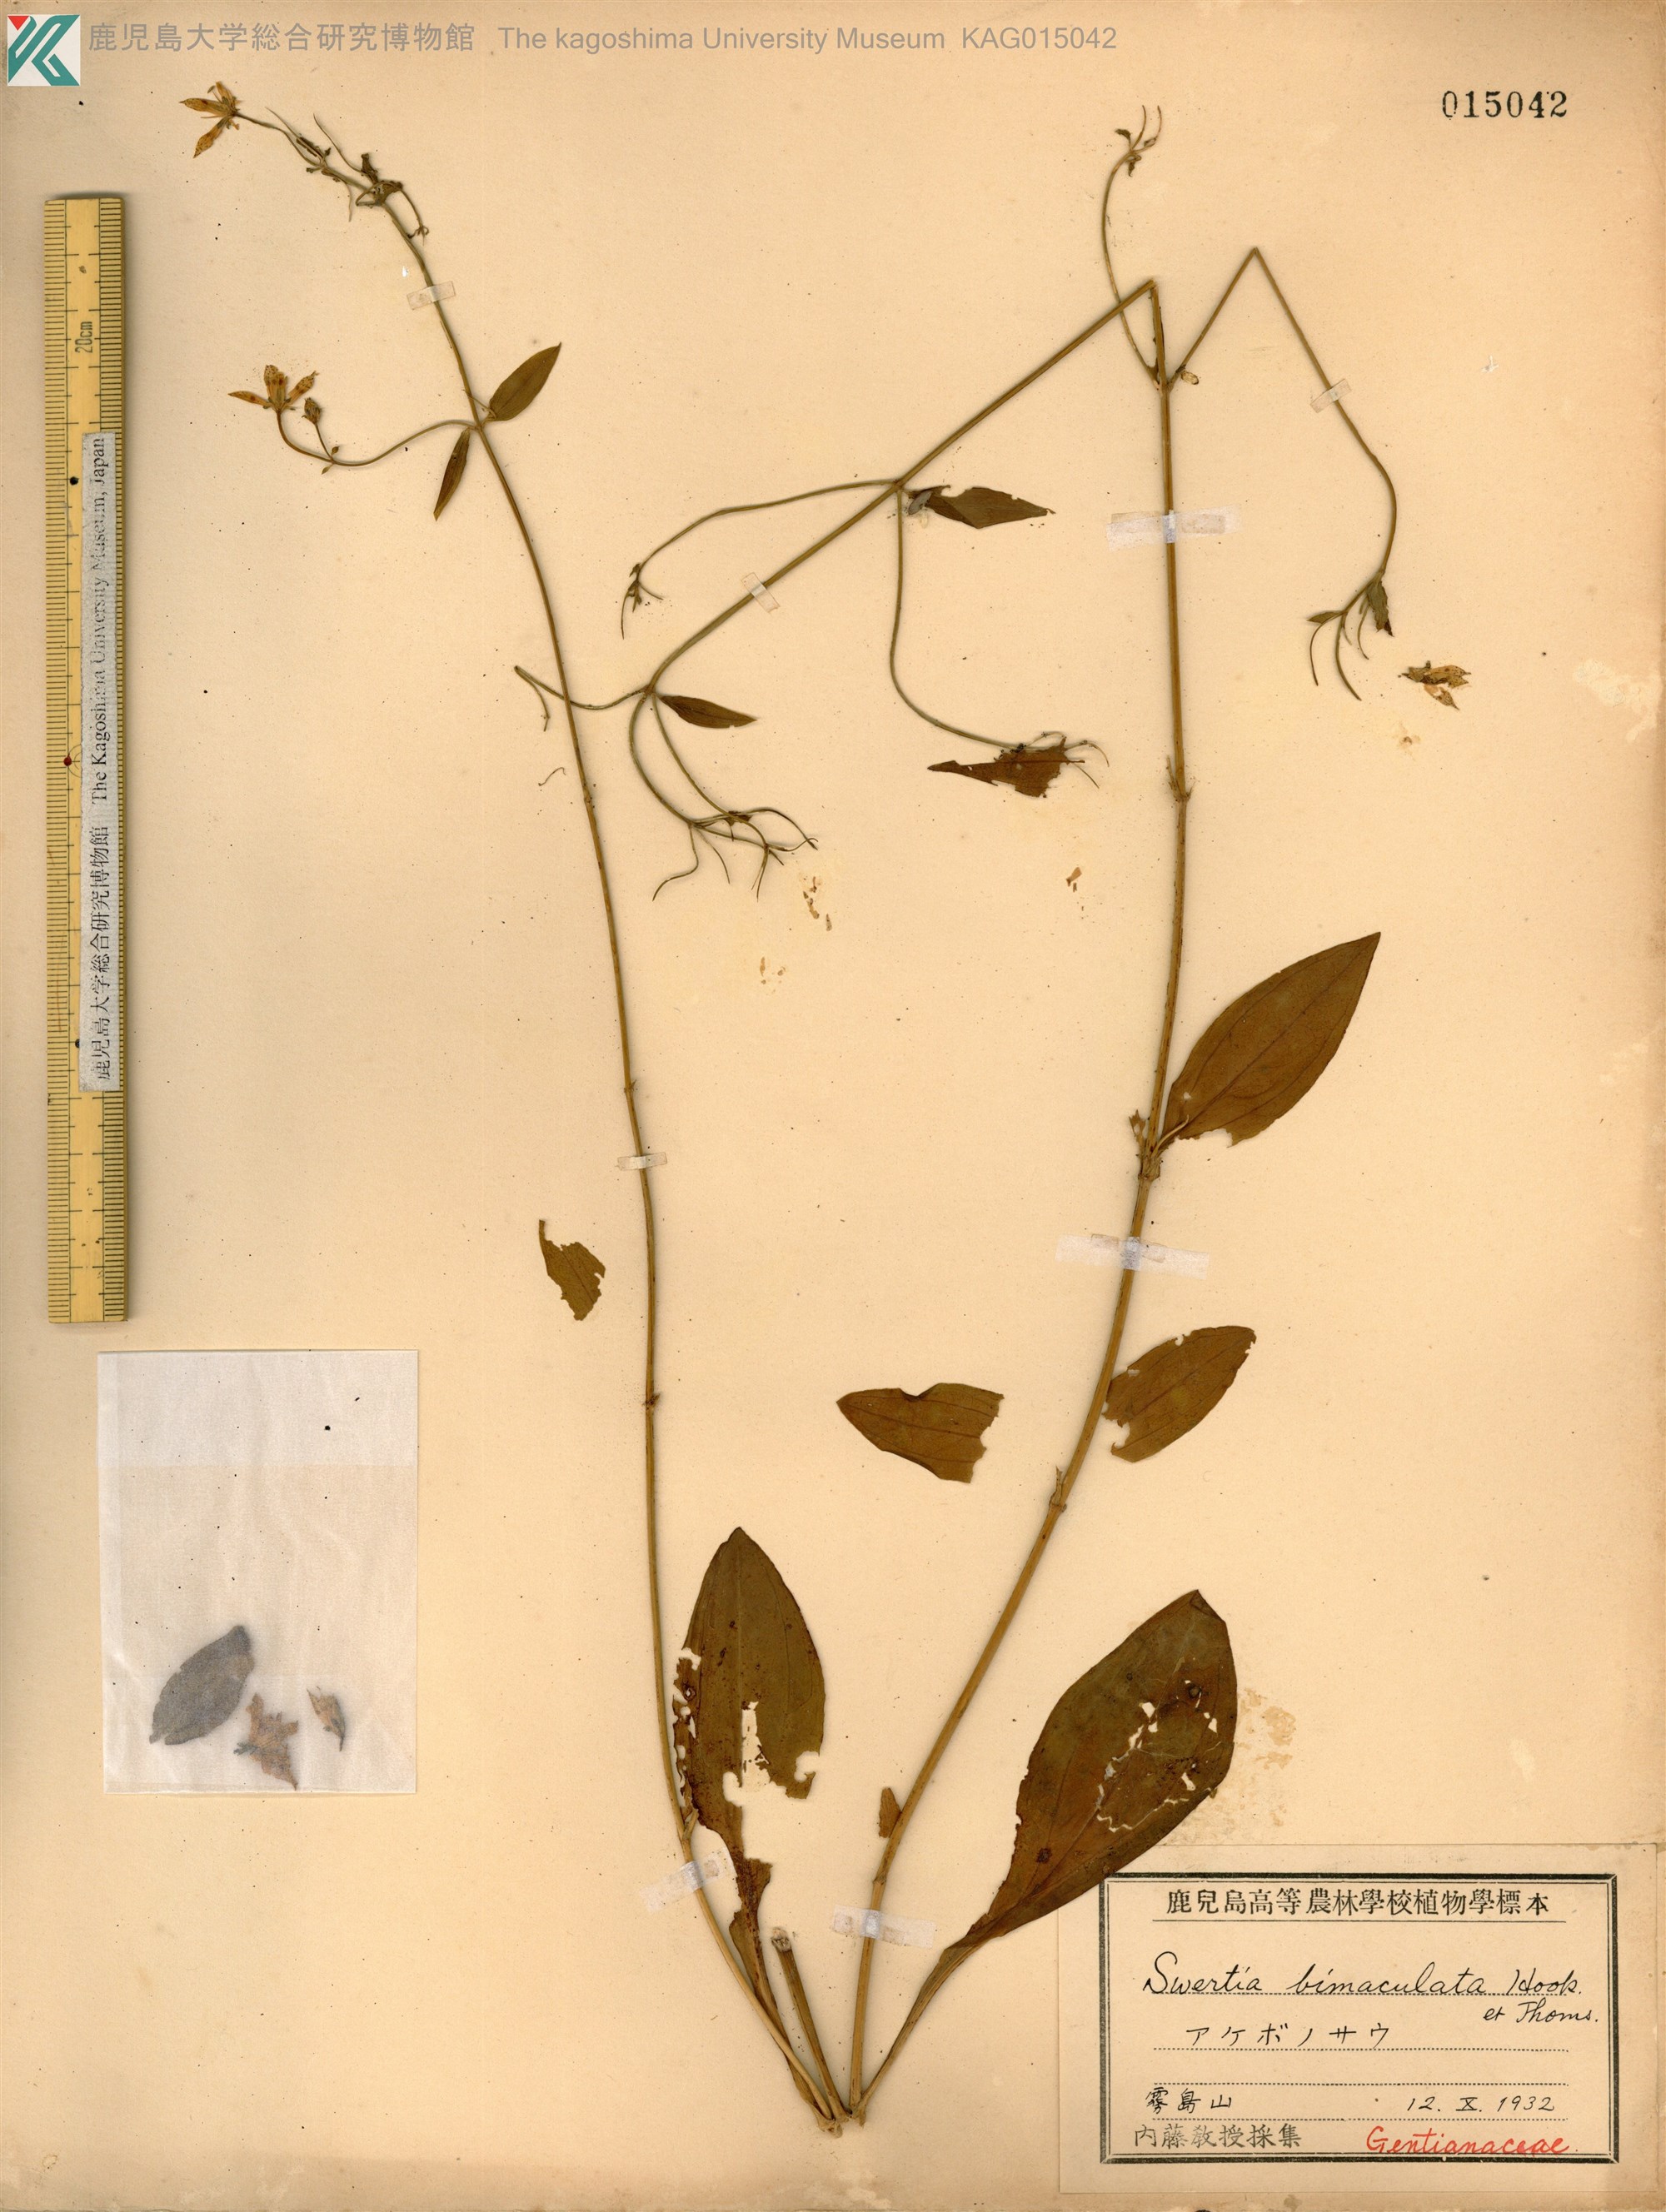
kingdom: Plantae
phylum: Tracheophyta
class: Magnoliopsida
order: Gentianales
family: Gentianaceae
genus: Swertia
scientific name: Swertia bimaculata
